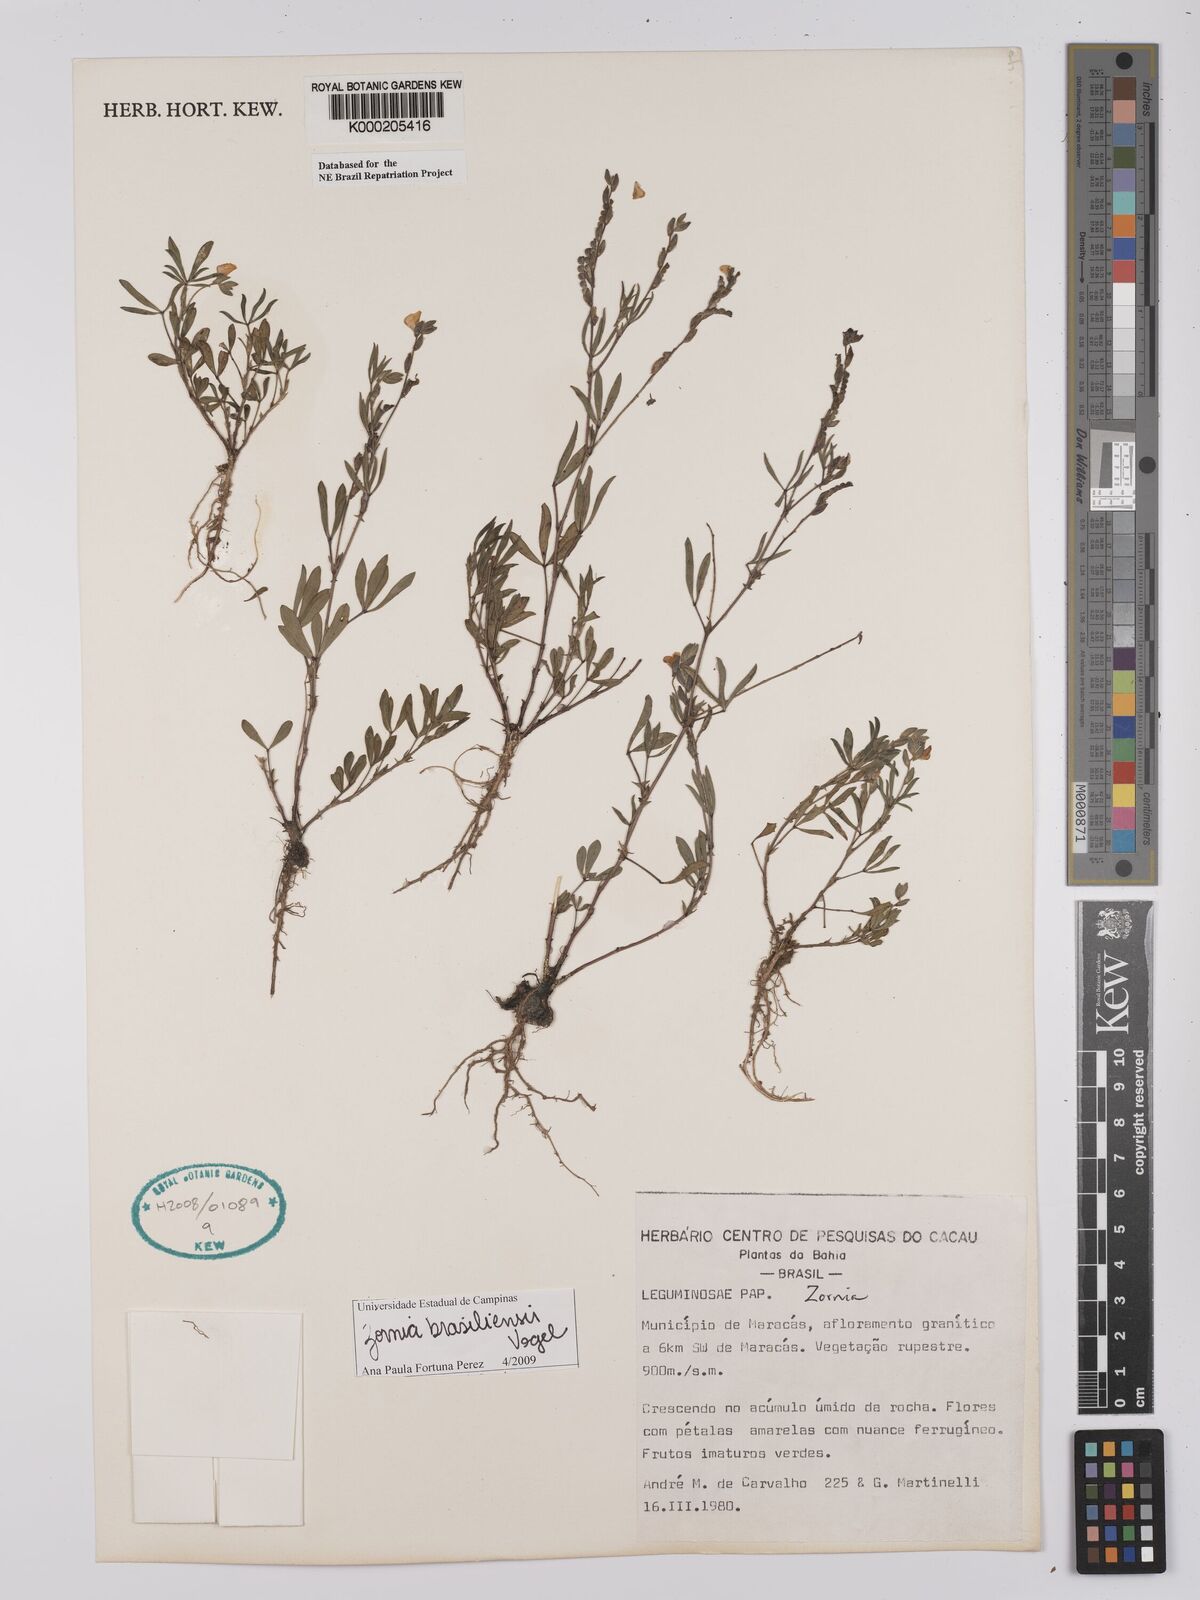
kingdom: Plantae
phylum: Tracheophyta
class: Magnoliopsida
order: Fabales
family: Fabaceae
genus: Zornia
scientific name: Zornia
